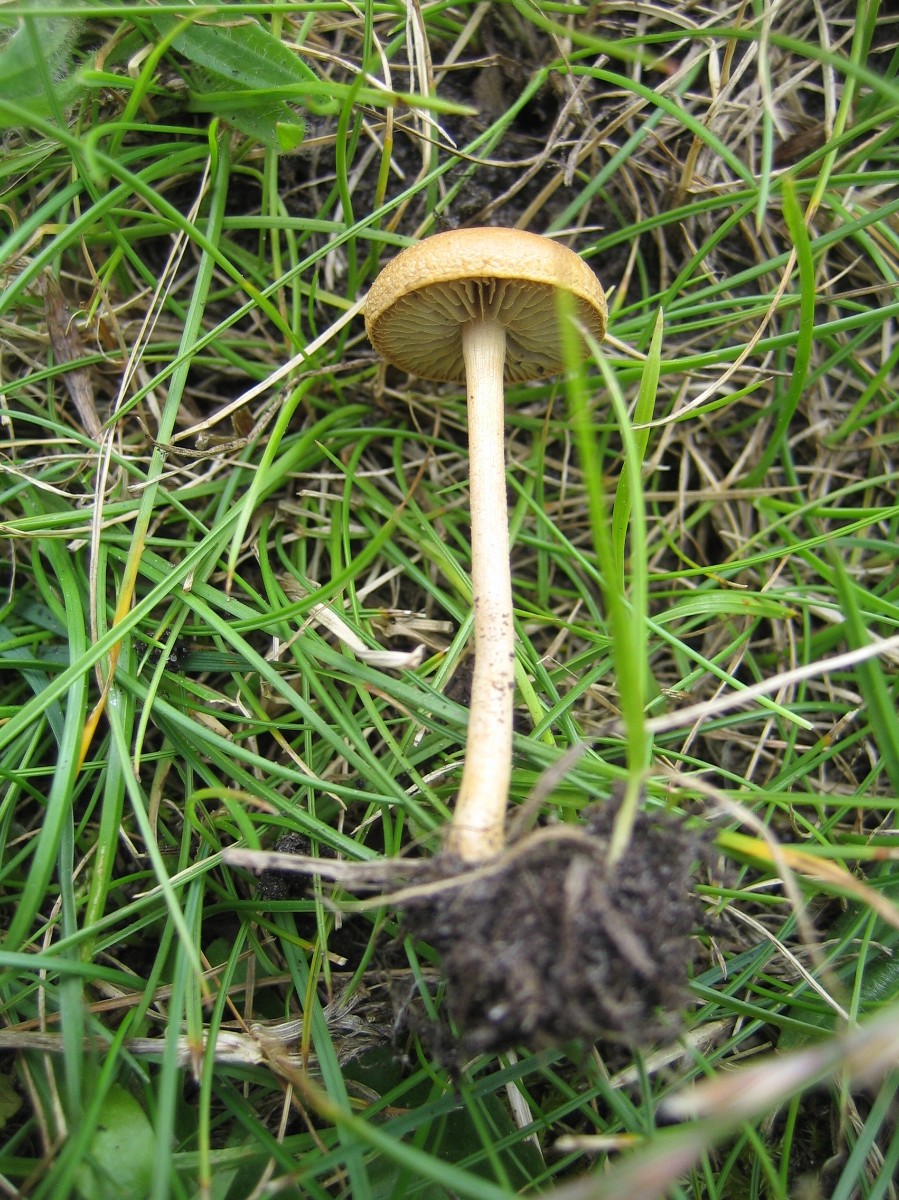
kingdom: Fungi
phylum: Basidiomycota
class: Agaricomycetes
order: Agaricales
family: Strophariaceae
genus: Agrocybe
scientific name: Agrocybe pediades
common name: almindelig agerhat
